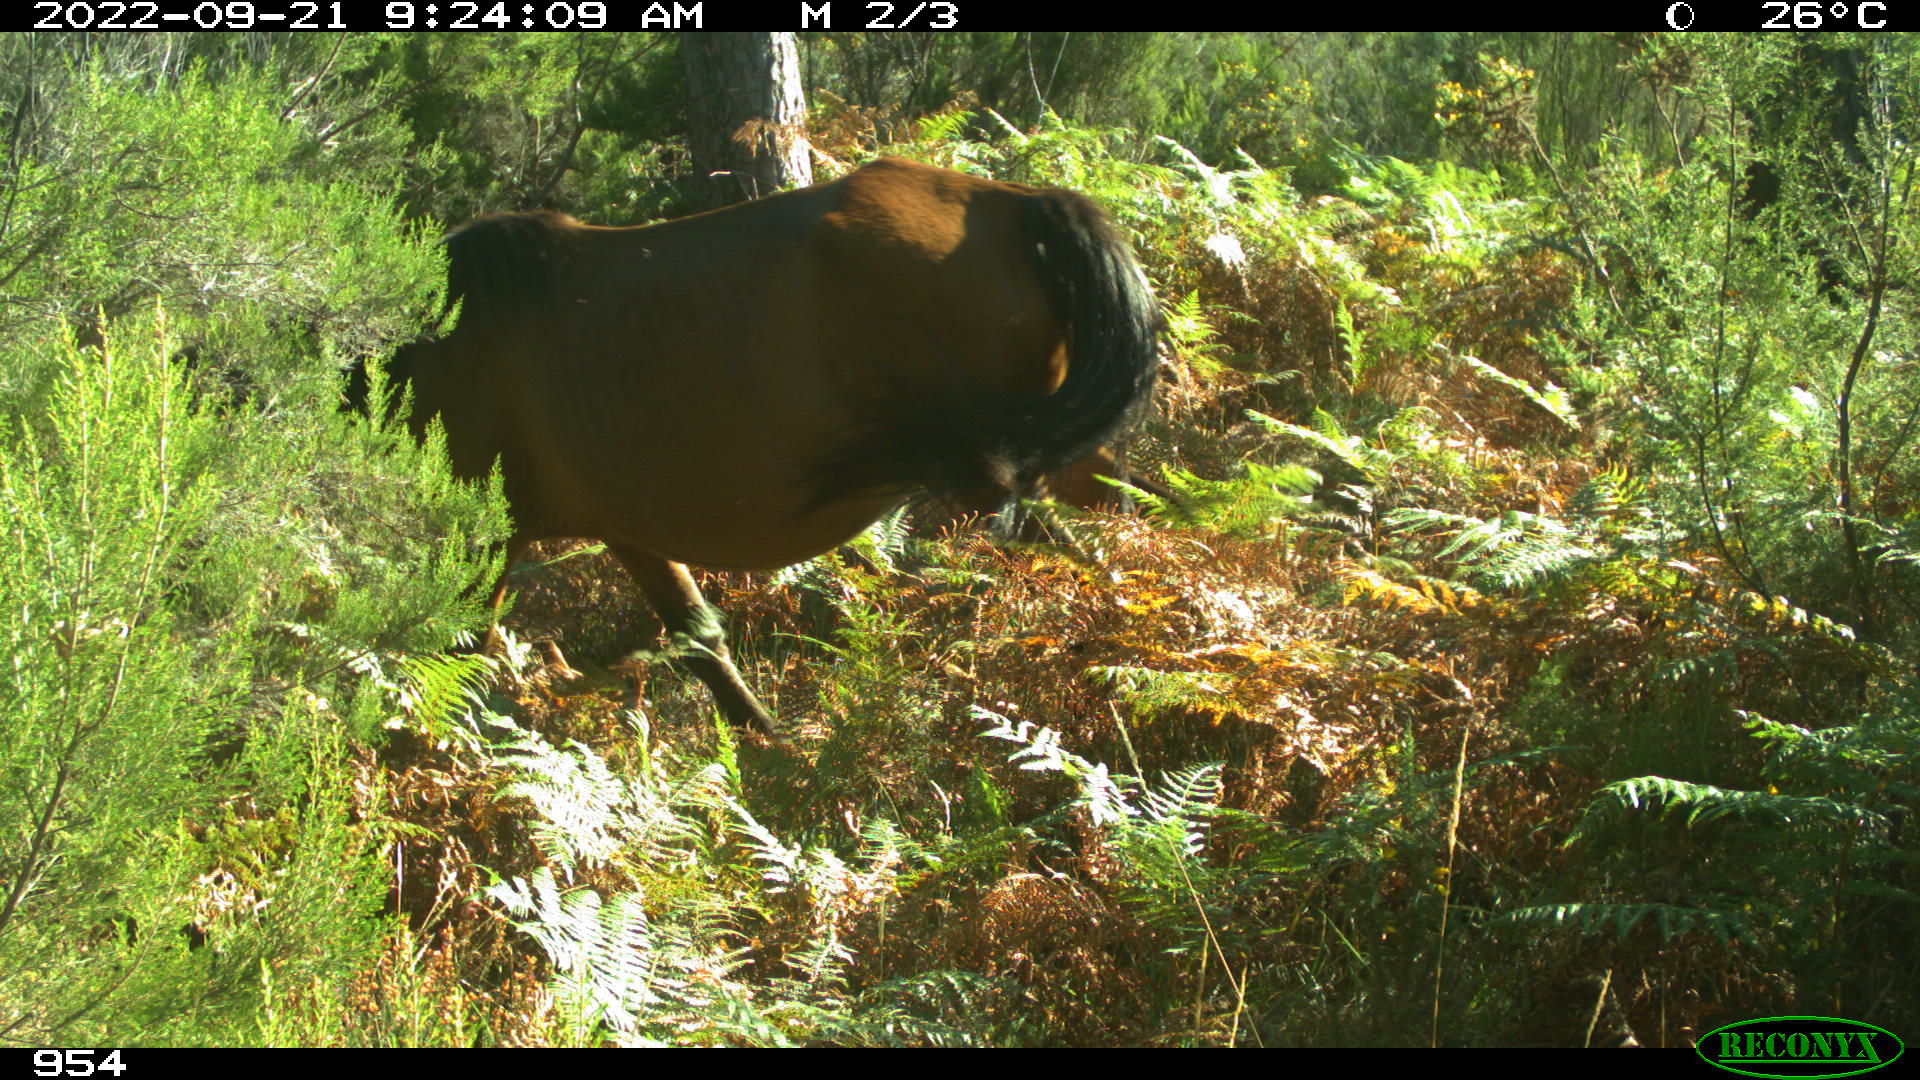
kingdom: Animalia
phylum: Chordata
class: Mammalia
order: Perissodactyla
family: Equidae
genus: Equus
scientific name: Equus caballus
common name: Horse
